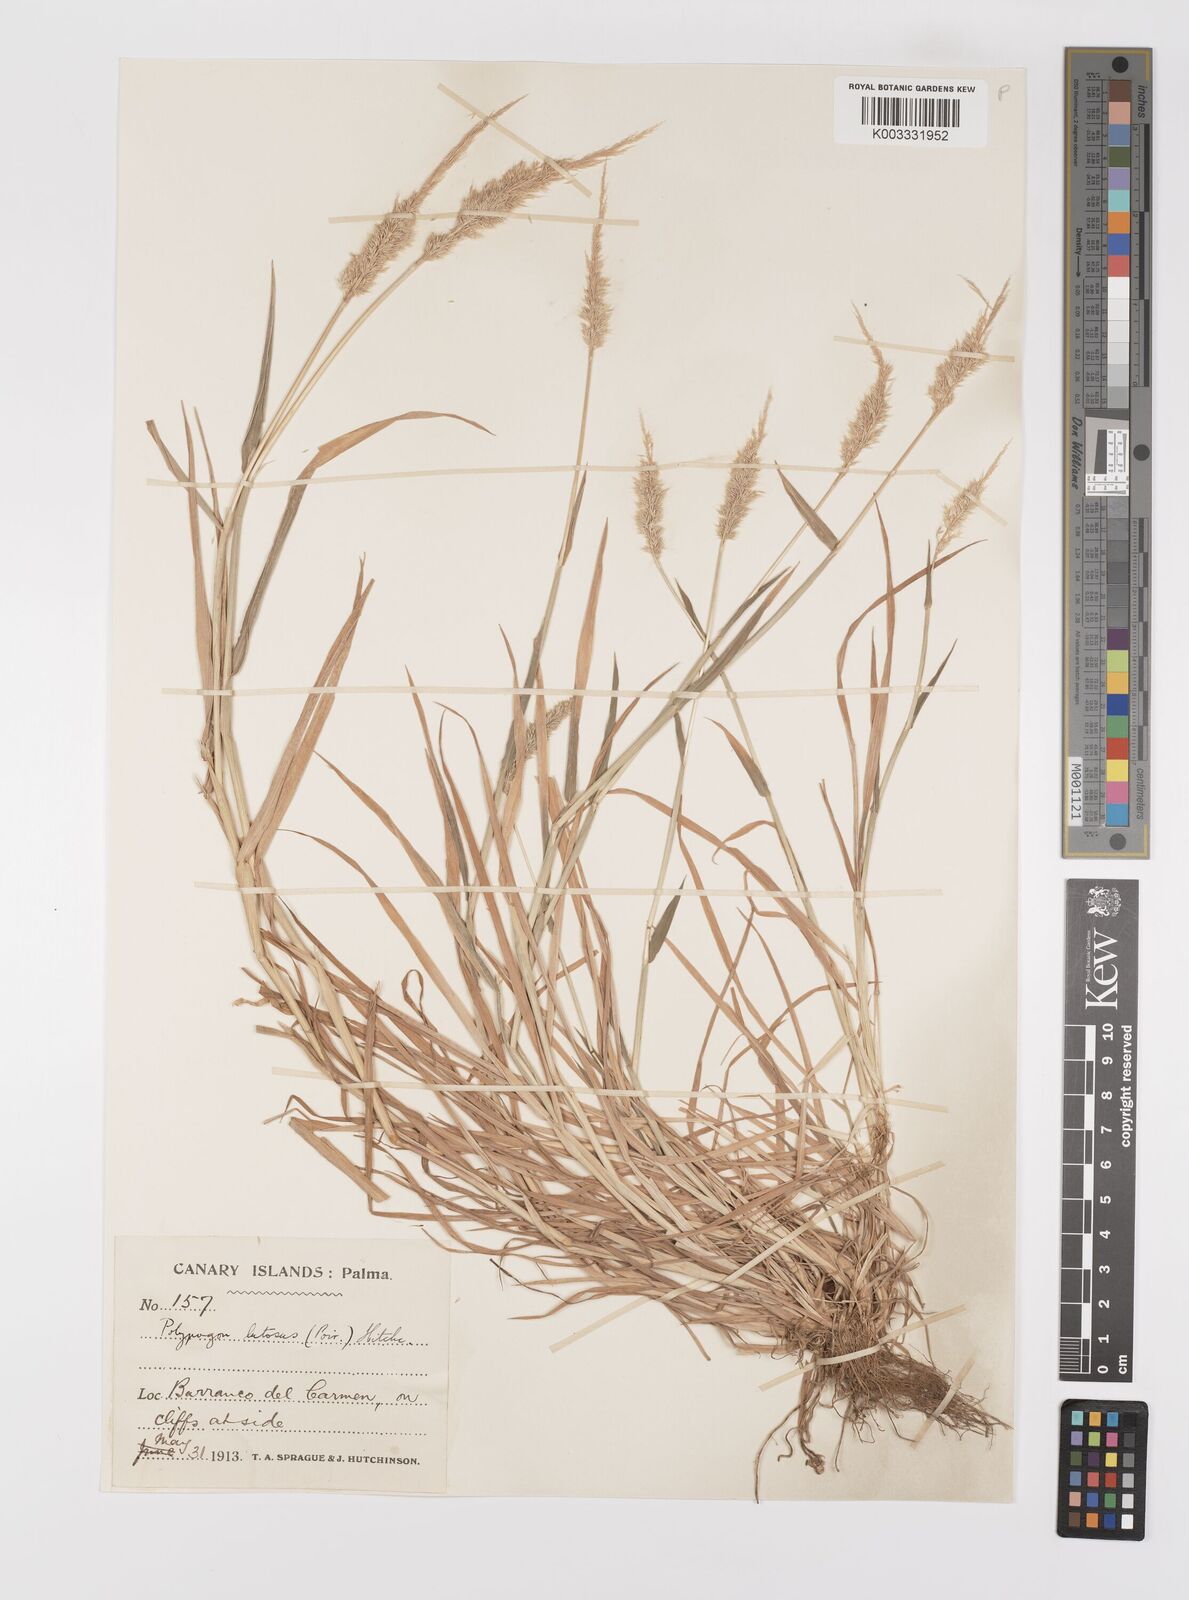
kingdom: Plantae
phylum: Tracheophyta
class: Liliopsida
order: Poales
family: Poaceae
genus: Polypogon
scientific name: Polypogon fugax
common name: Asia minor bluegrass
